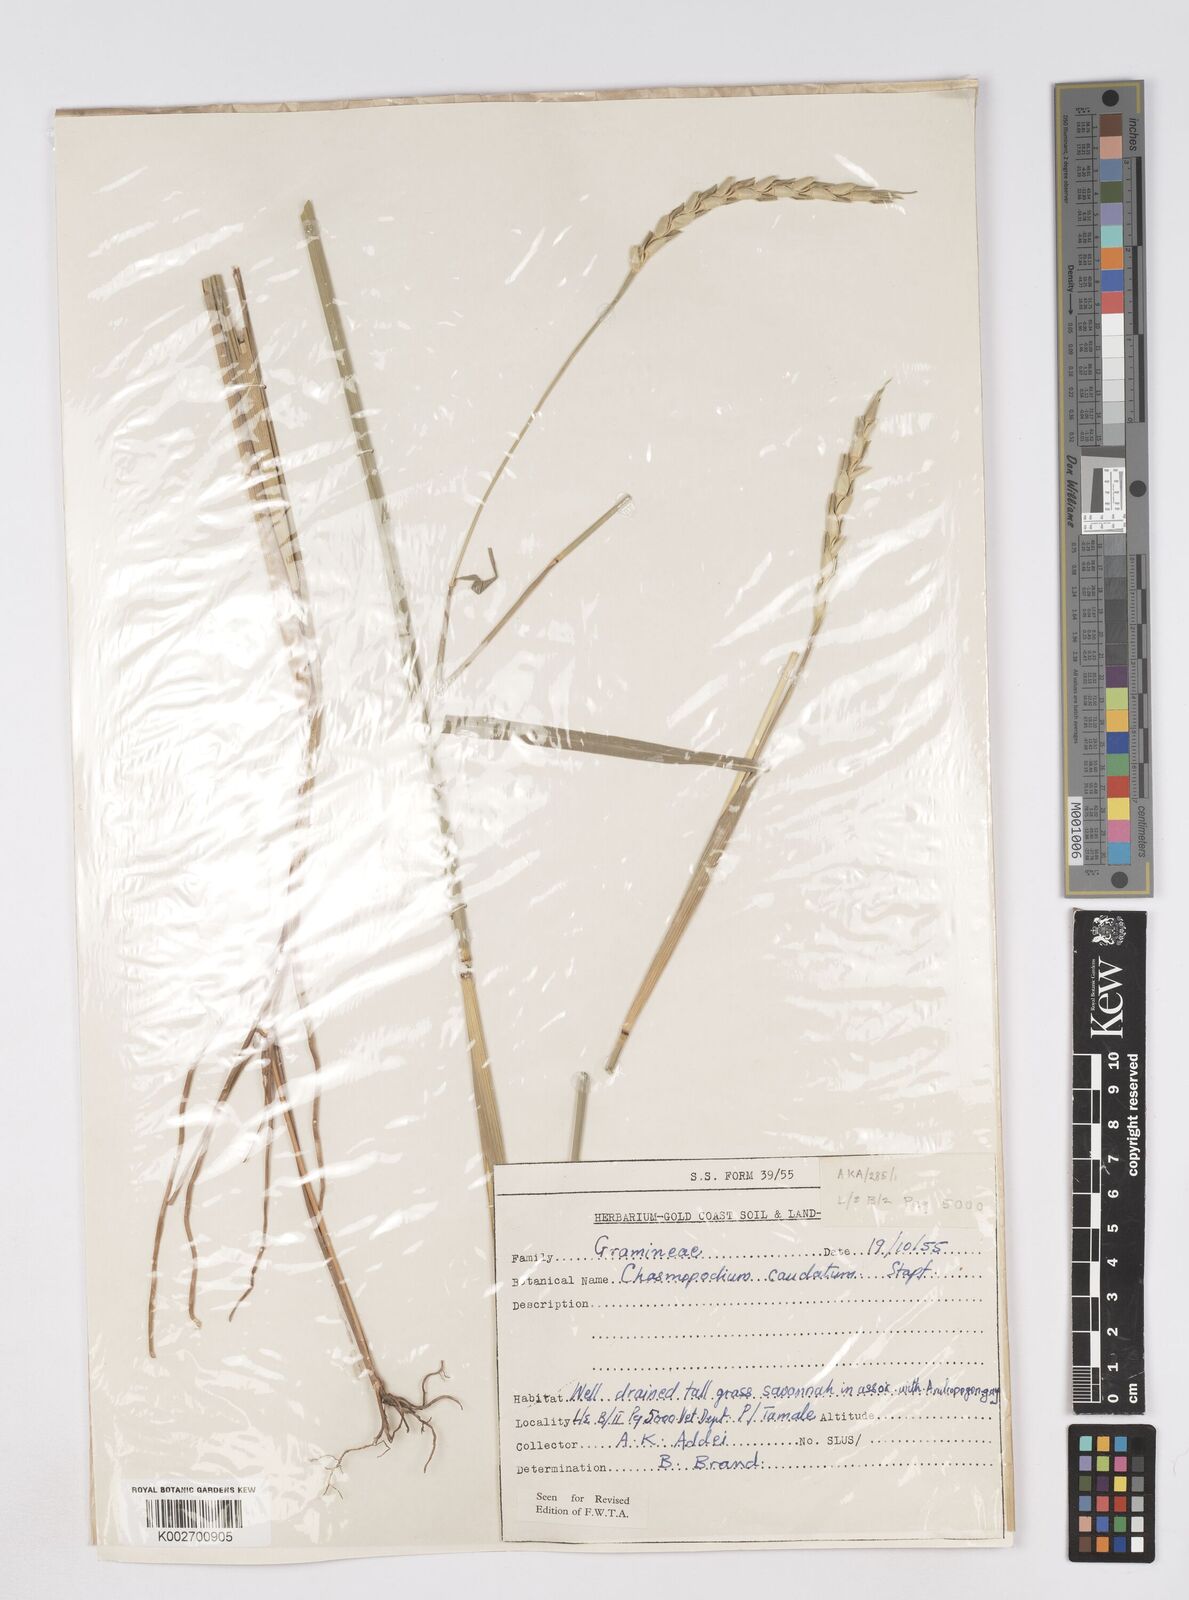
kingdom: Plantae
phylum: Tracheophyta
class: Liliopsida
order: Poales
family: Poaceae
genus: Chasmopodium
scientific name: Chasmopodium afzelii
